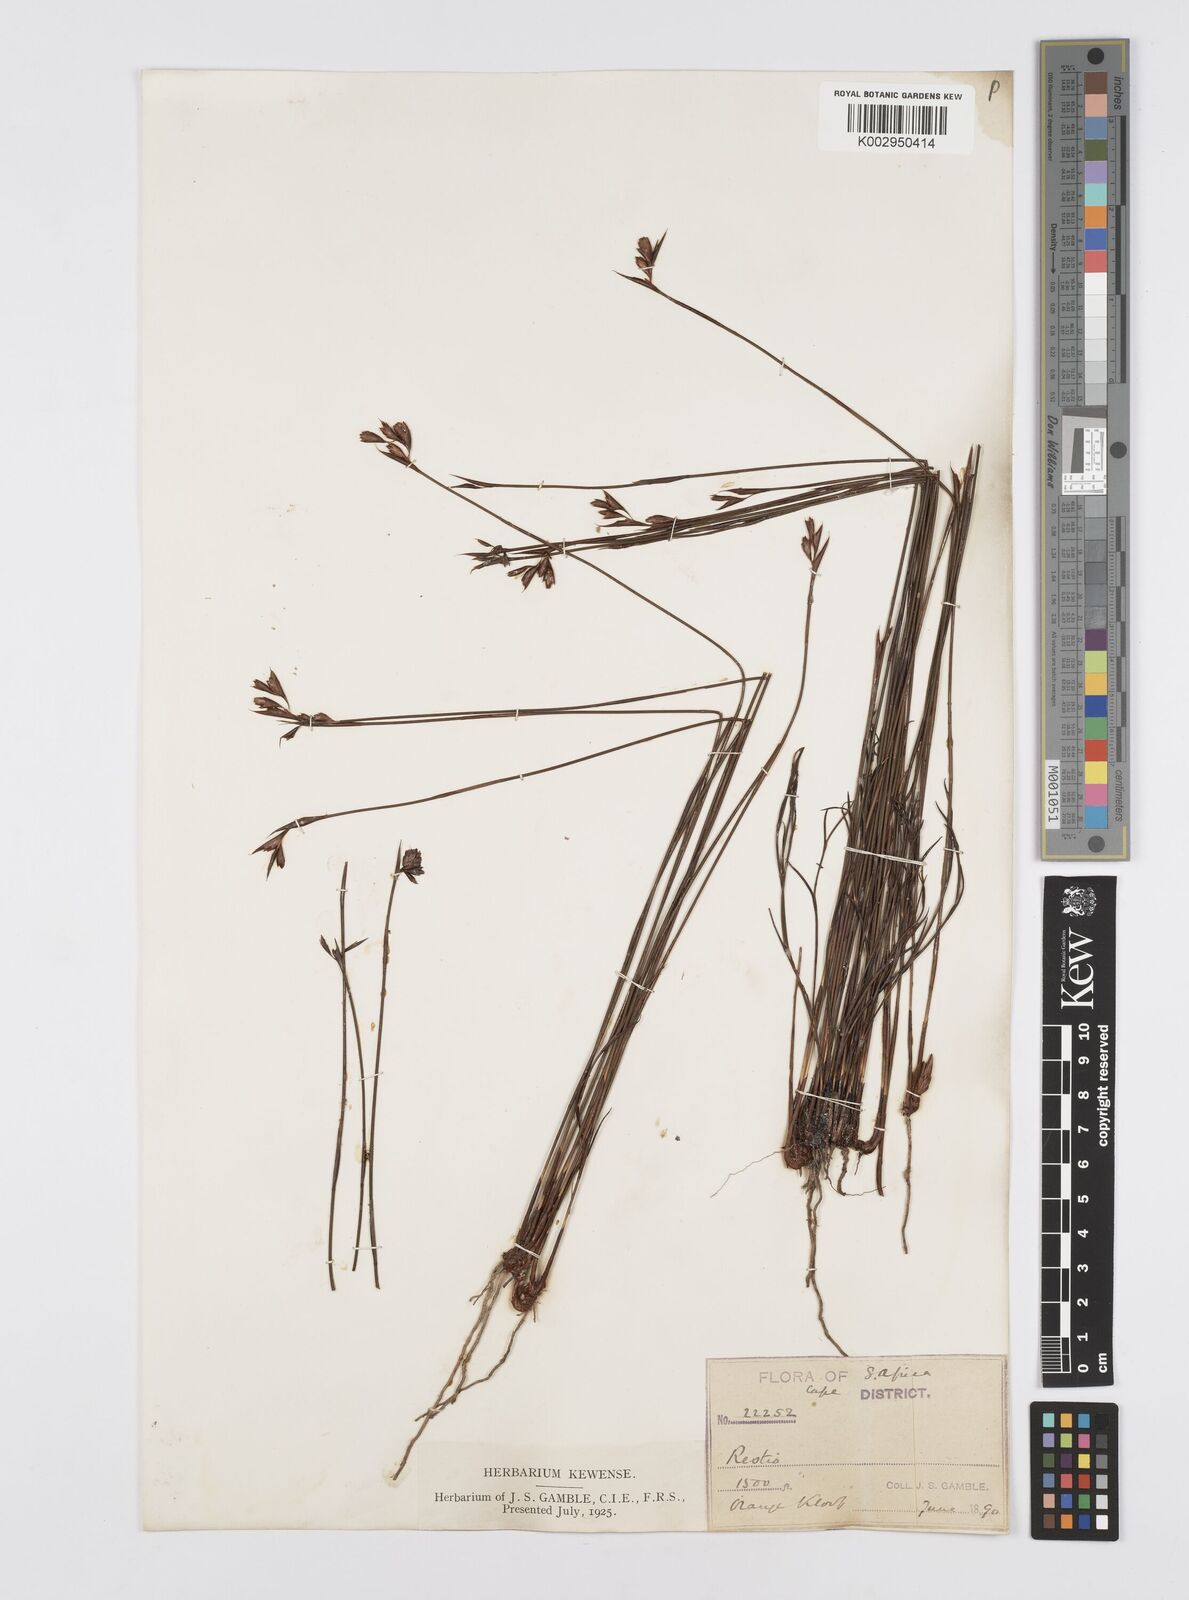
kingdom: Plantae
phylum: Tracheophyta
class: Liliopsida
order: Poales
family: Restionaceae
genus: Staberoha
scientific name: Staberoha
